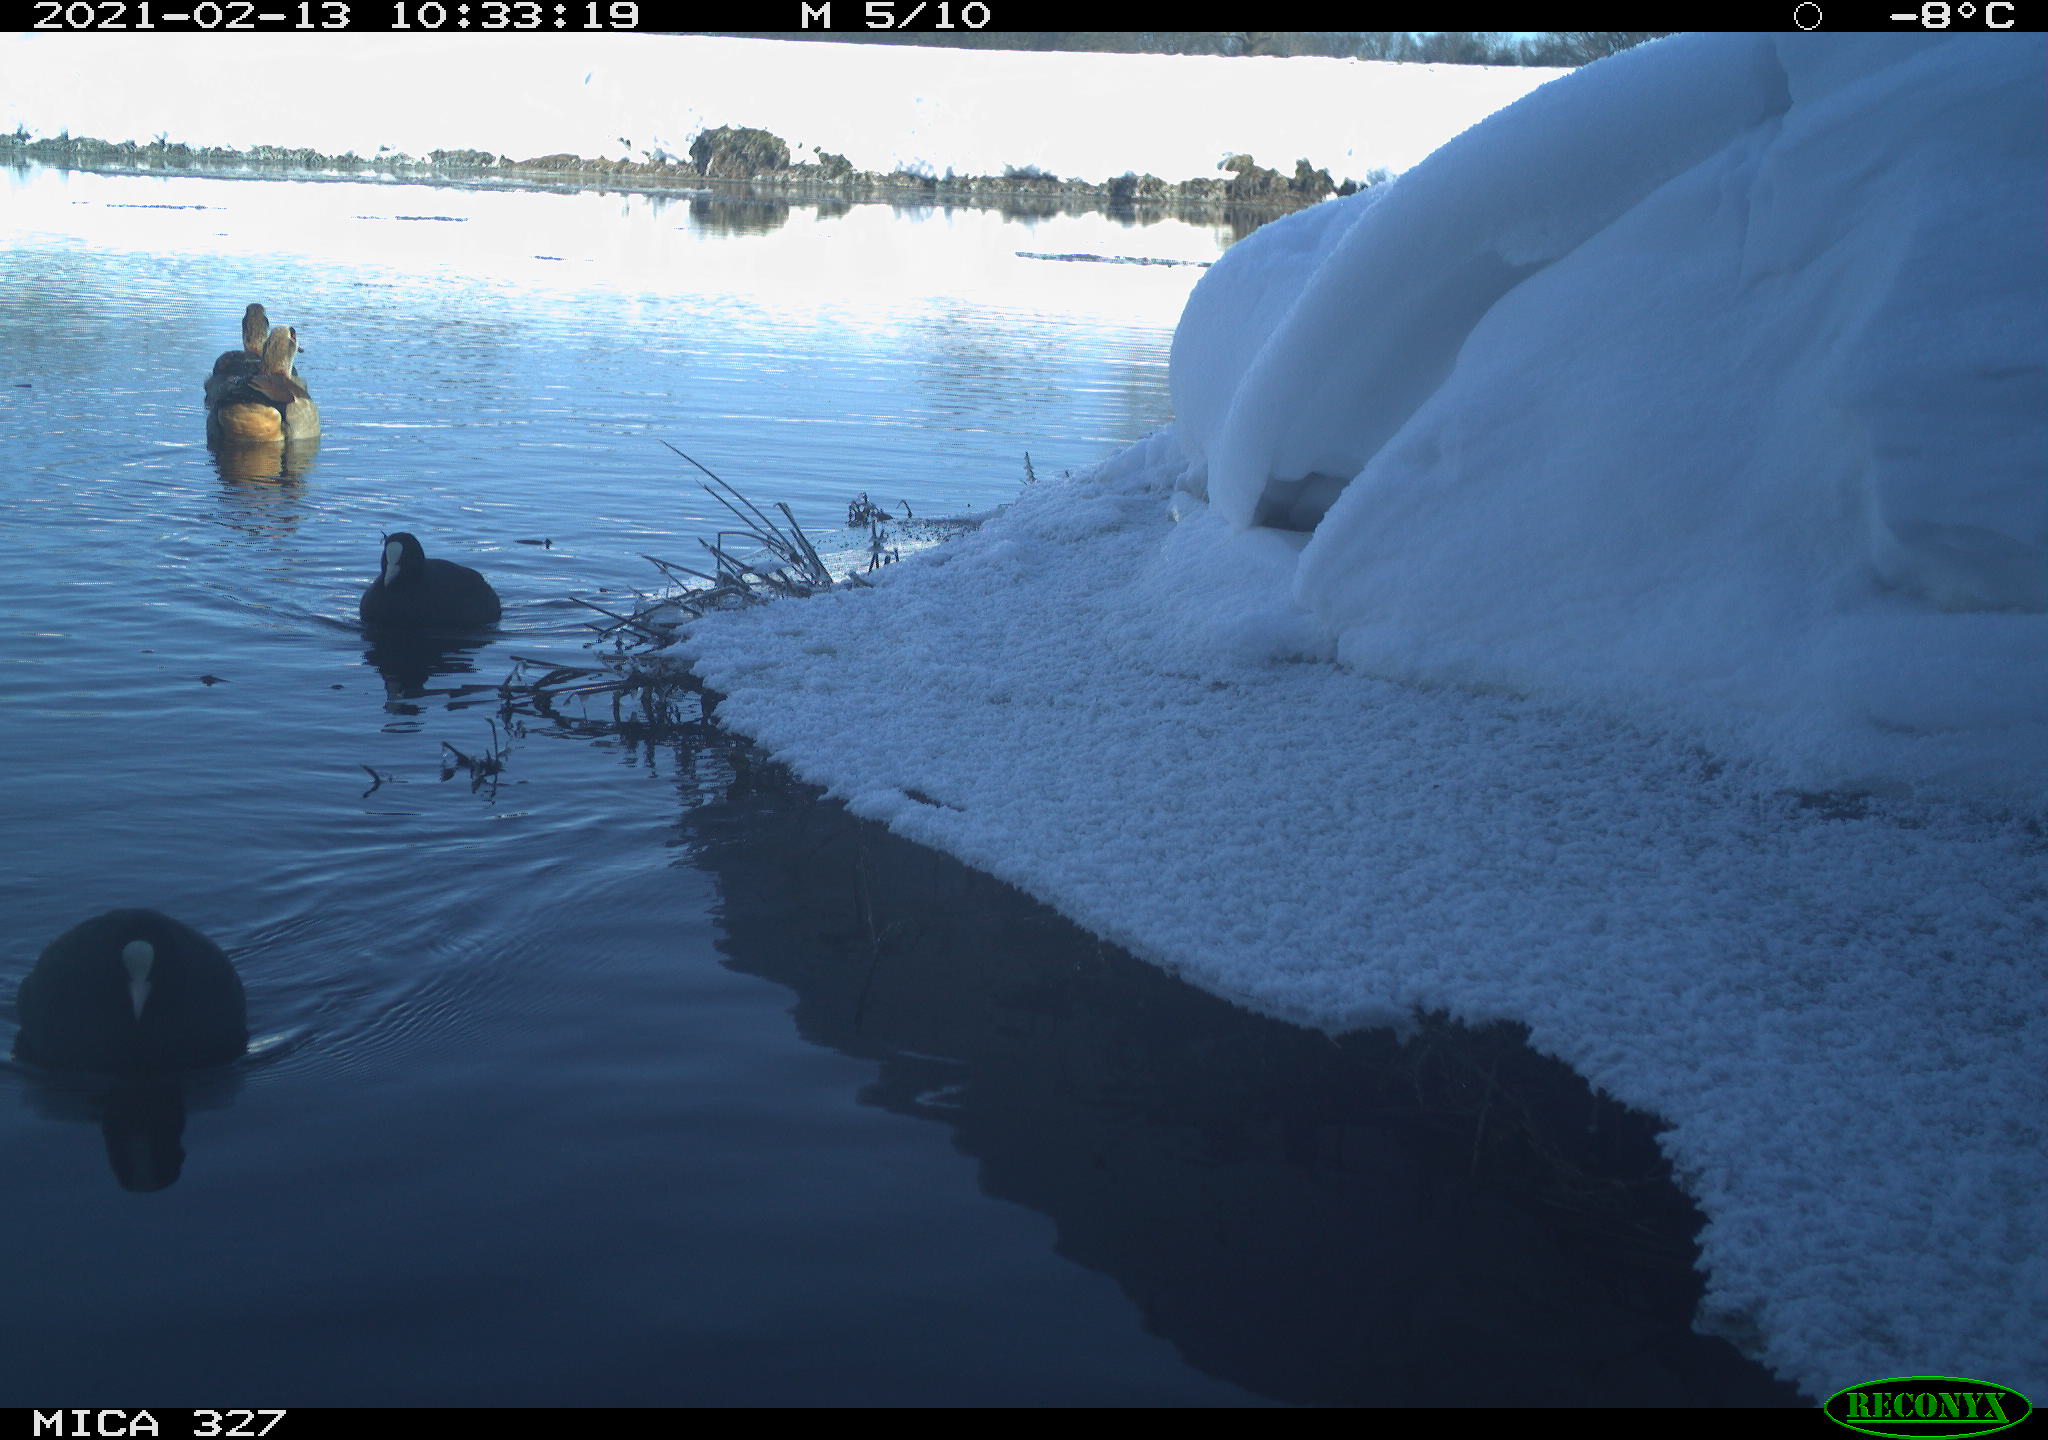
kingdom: Animalia
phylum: Chordata
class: Aves
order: Anseriformes
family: Anatidae
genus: Alopochen
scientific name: Alopochen aegyptiaca
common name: Egyptian goose
